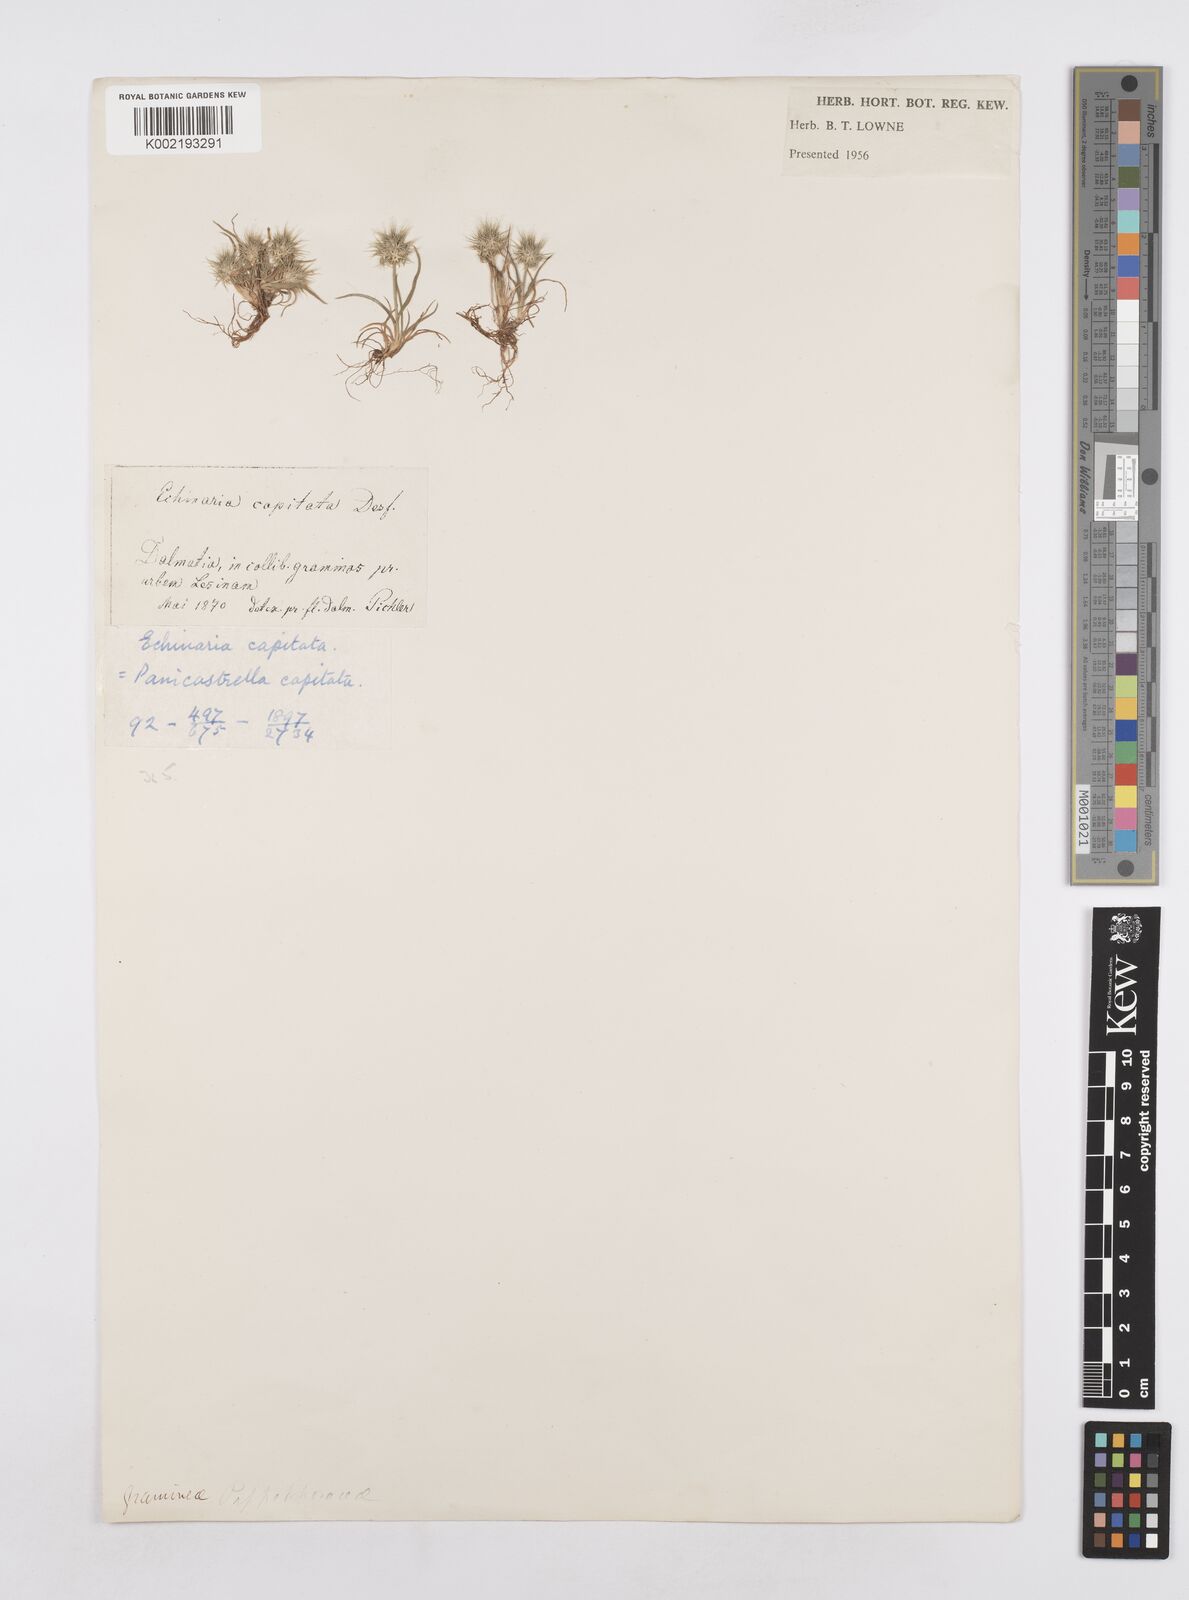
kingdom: Plantae
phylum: Tracheophyta
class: Liliopsida
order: Poales
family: Poaceae
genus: Echinaria
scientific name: Echinaria capitata
